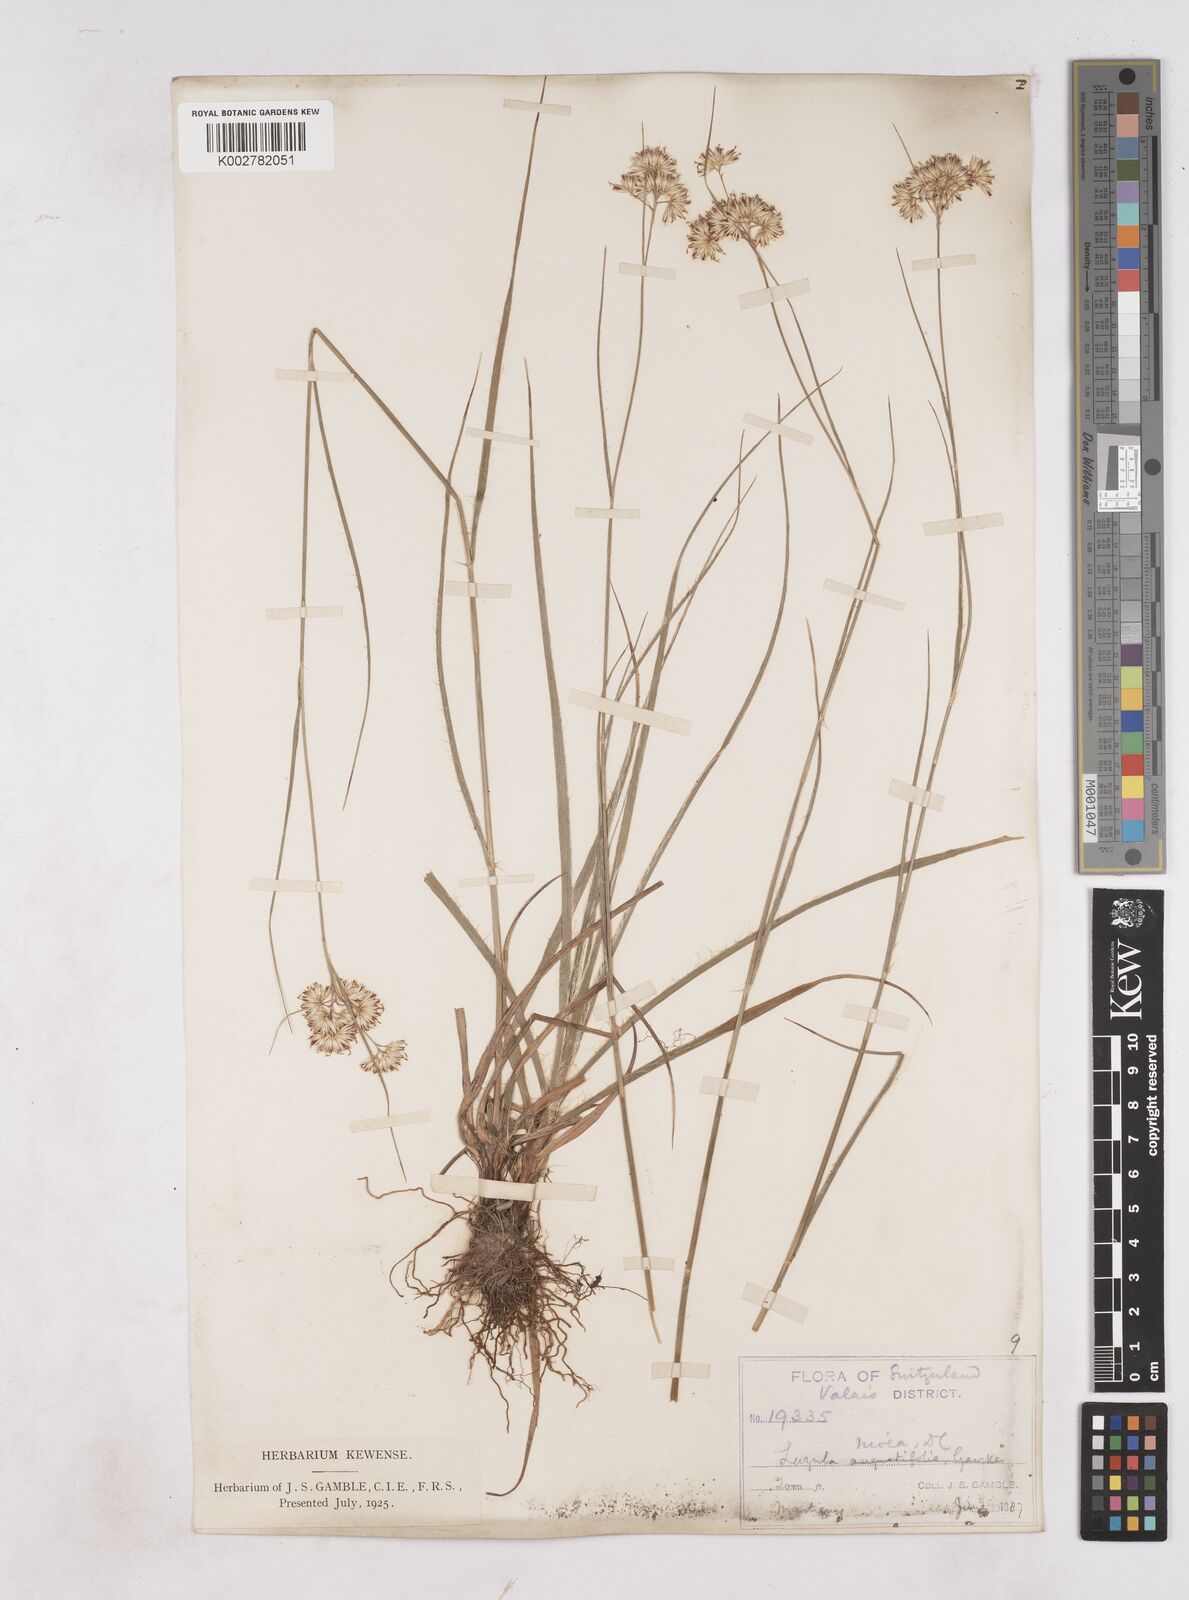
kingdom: Plantae
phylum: Tracheophyta
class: Liliopsida
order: Poales
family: Juncaceae
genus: Luzula
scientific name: Luzula nivea
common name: Snow-white wood-rush
